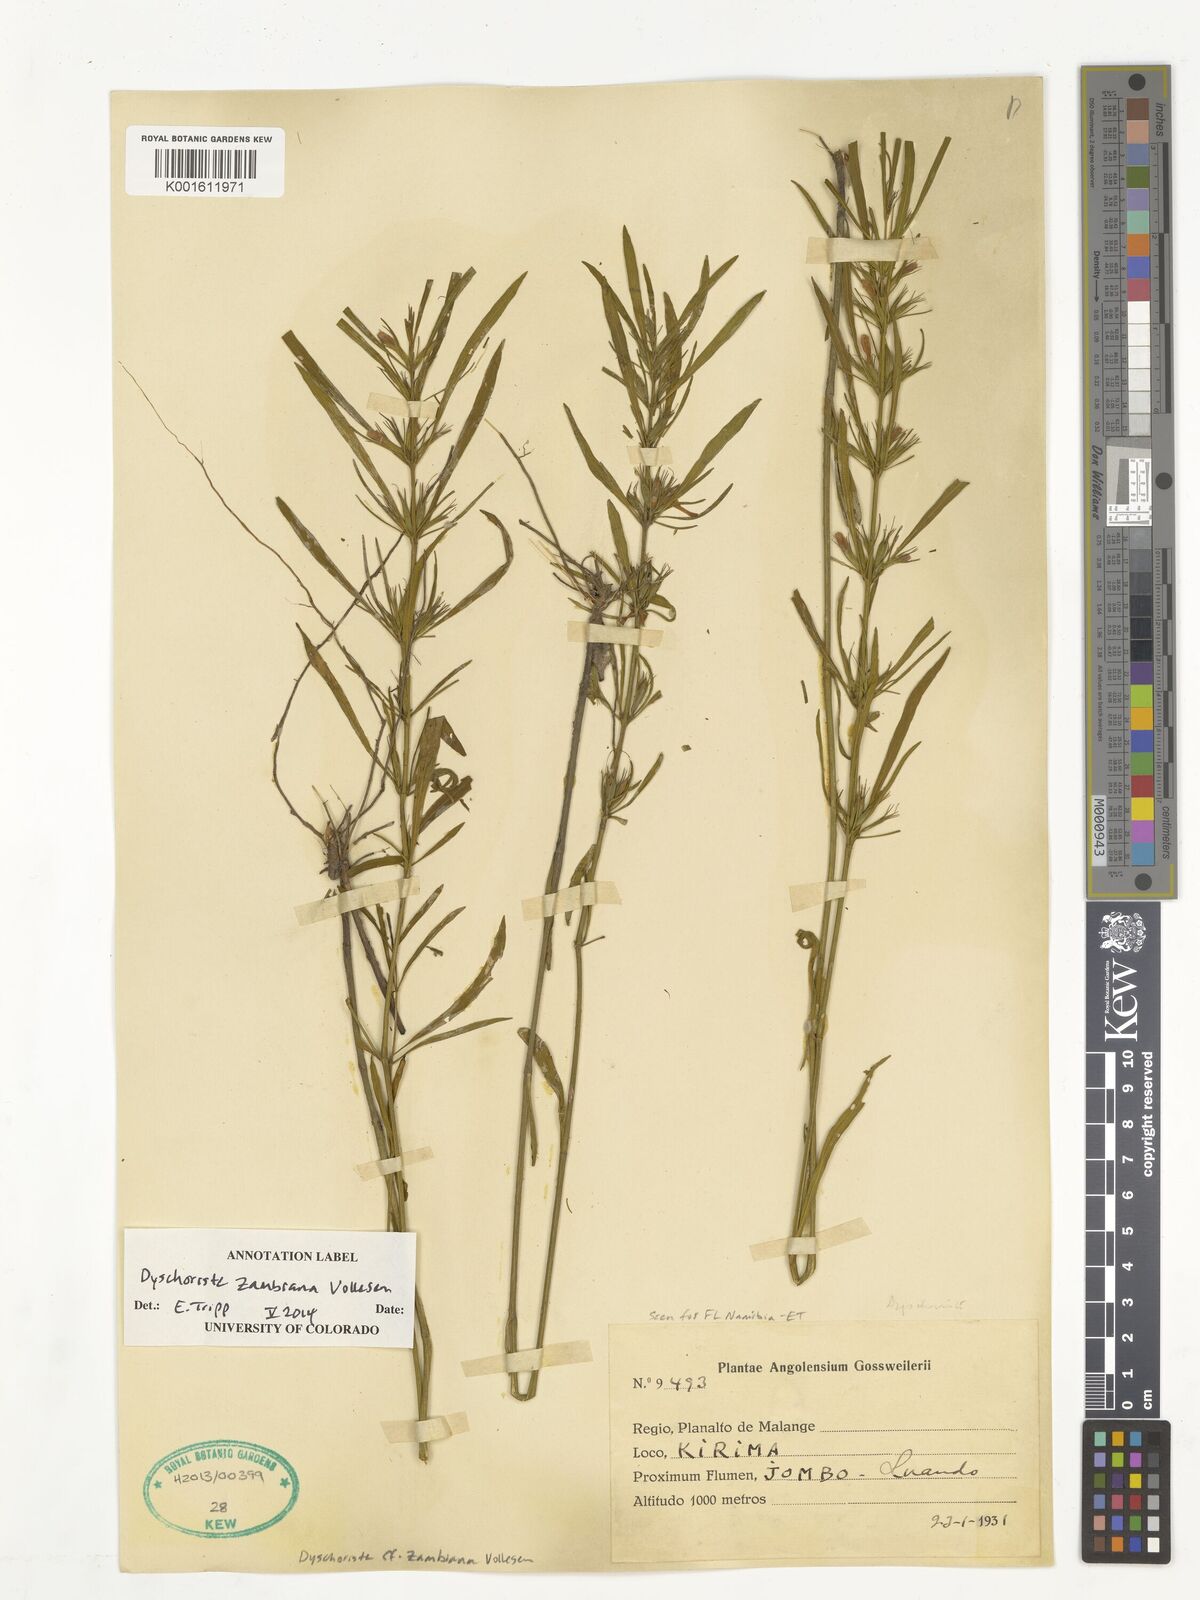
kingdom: Plantae
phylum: Tracheophyta
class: Magnoliopsida
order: Lamiales
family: Acanthaceae
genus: Dyschoriste
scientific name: Dyschoriste zambiana
